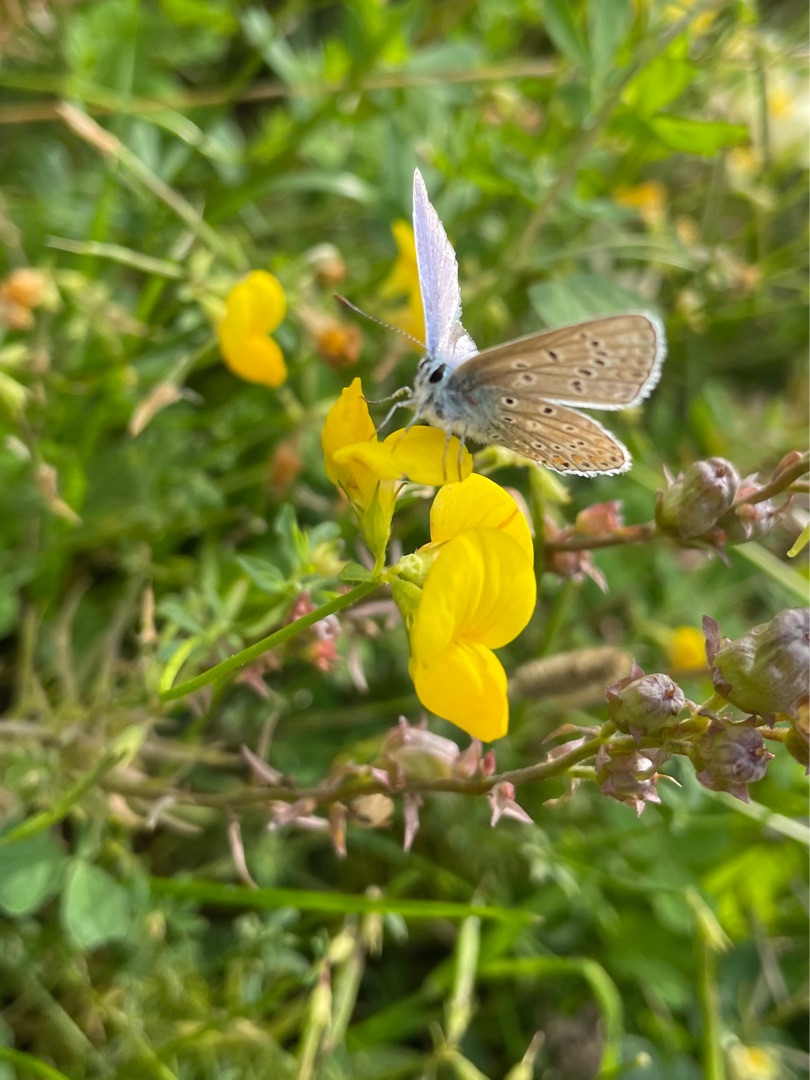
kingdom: Animalia
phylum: Arthropoda
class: Insecta
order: Lepidoptera
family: Lycaenidae
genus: Polyommatus
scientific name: Polyommatus icarus
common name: Almindelig blåfugl
